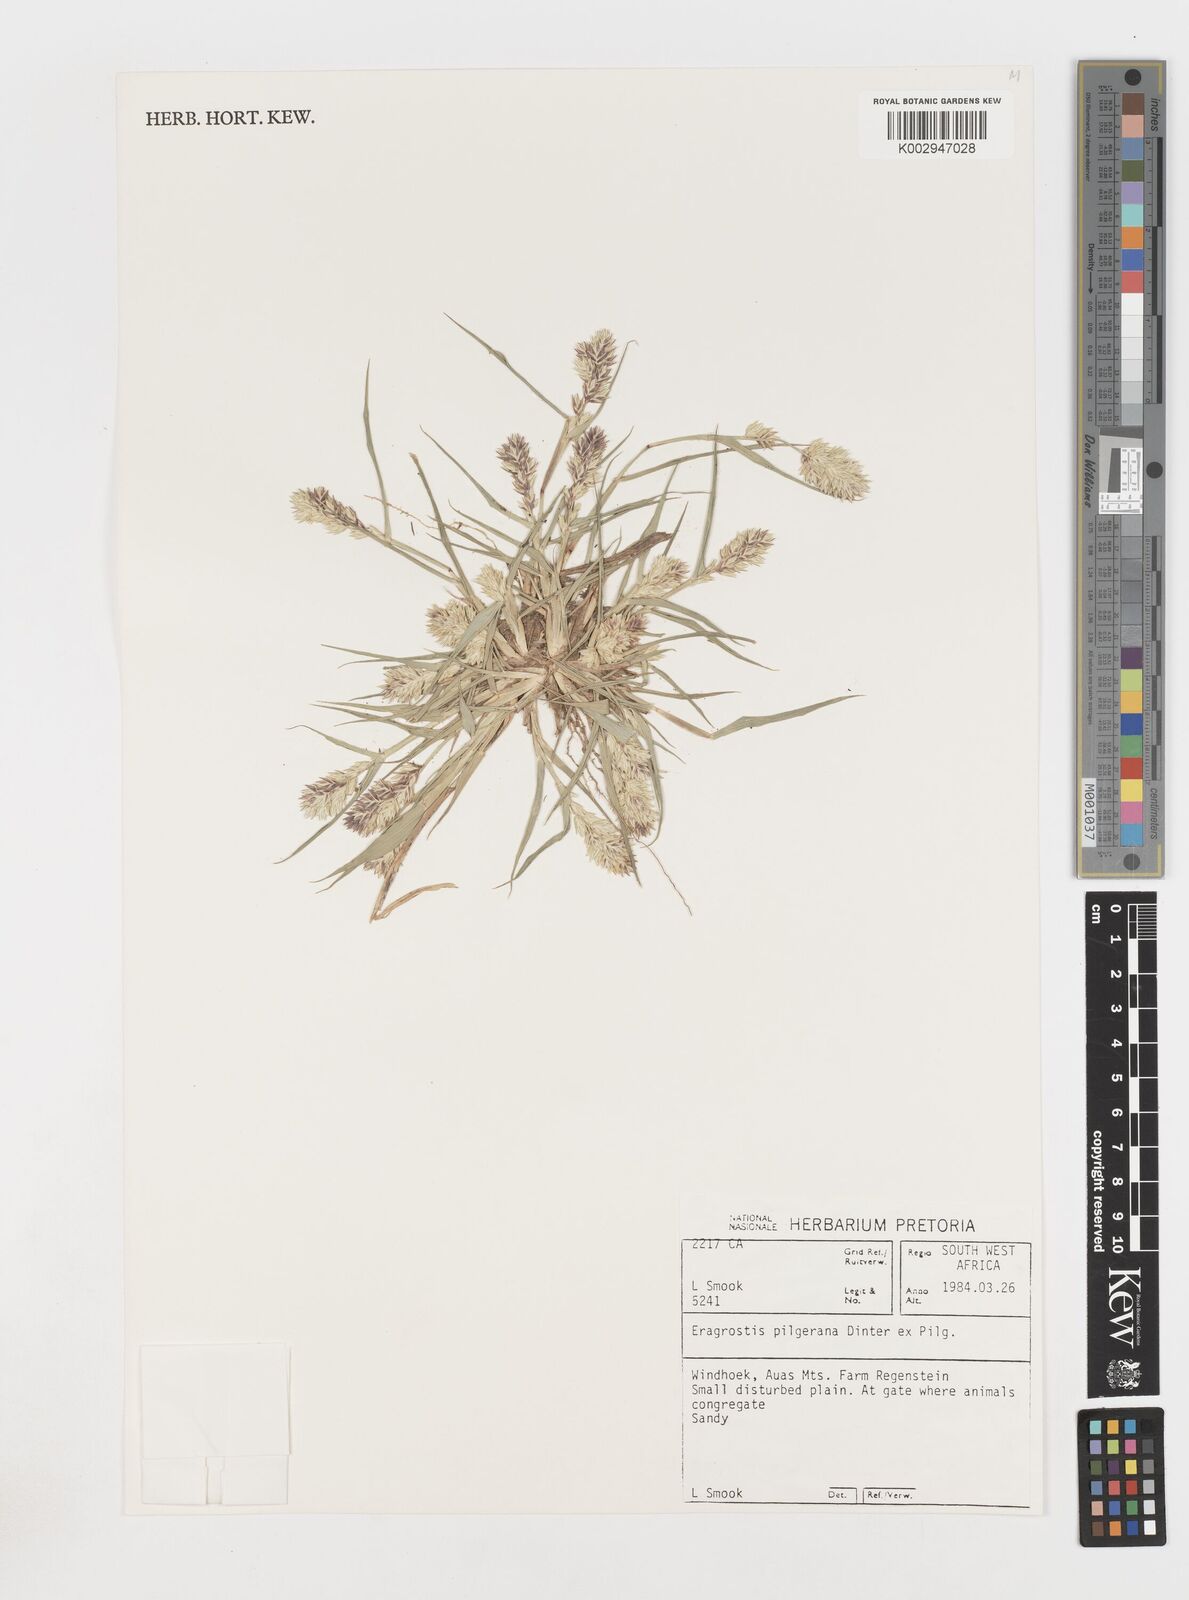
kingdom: Plantae
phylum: Tracheophyta
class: Liliopsida
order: Poales
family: Poaceae
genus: Eragrostis
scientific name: Eragrostis pilgeriana
